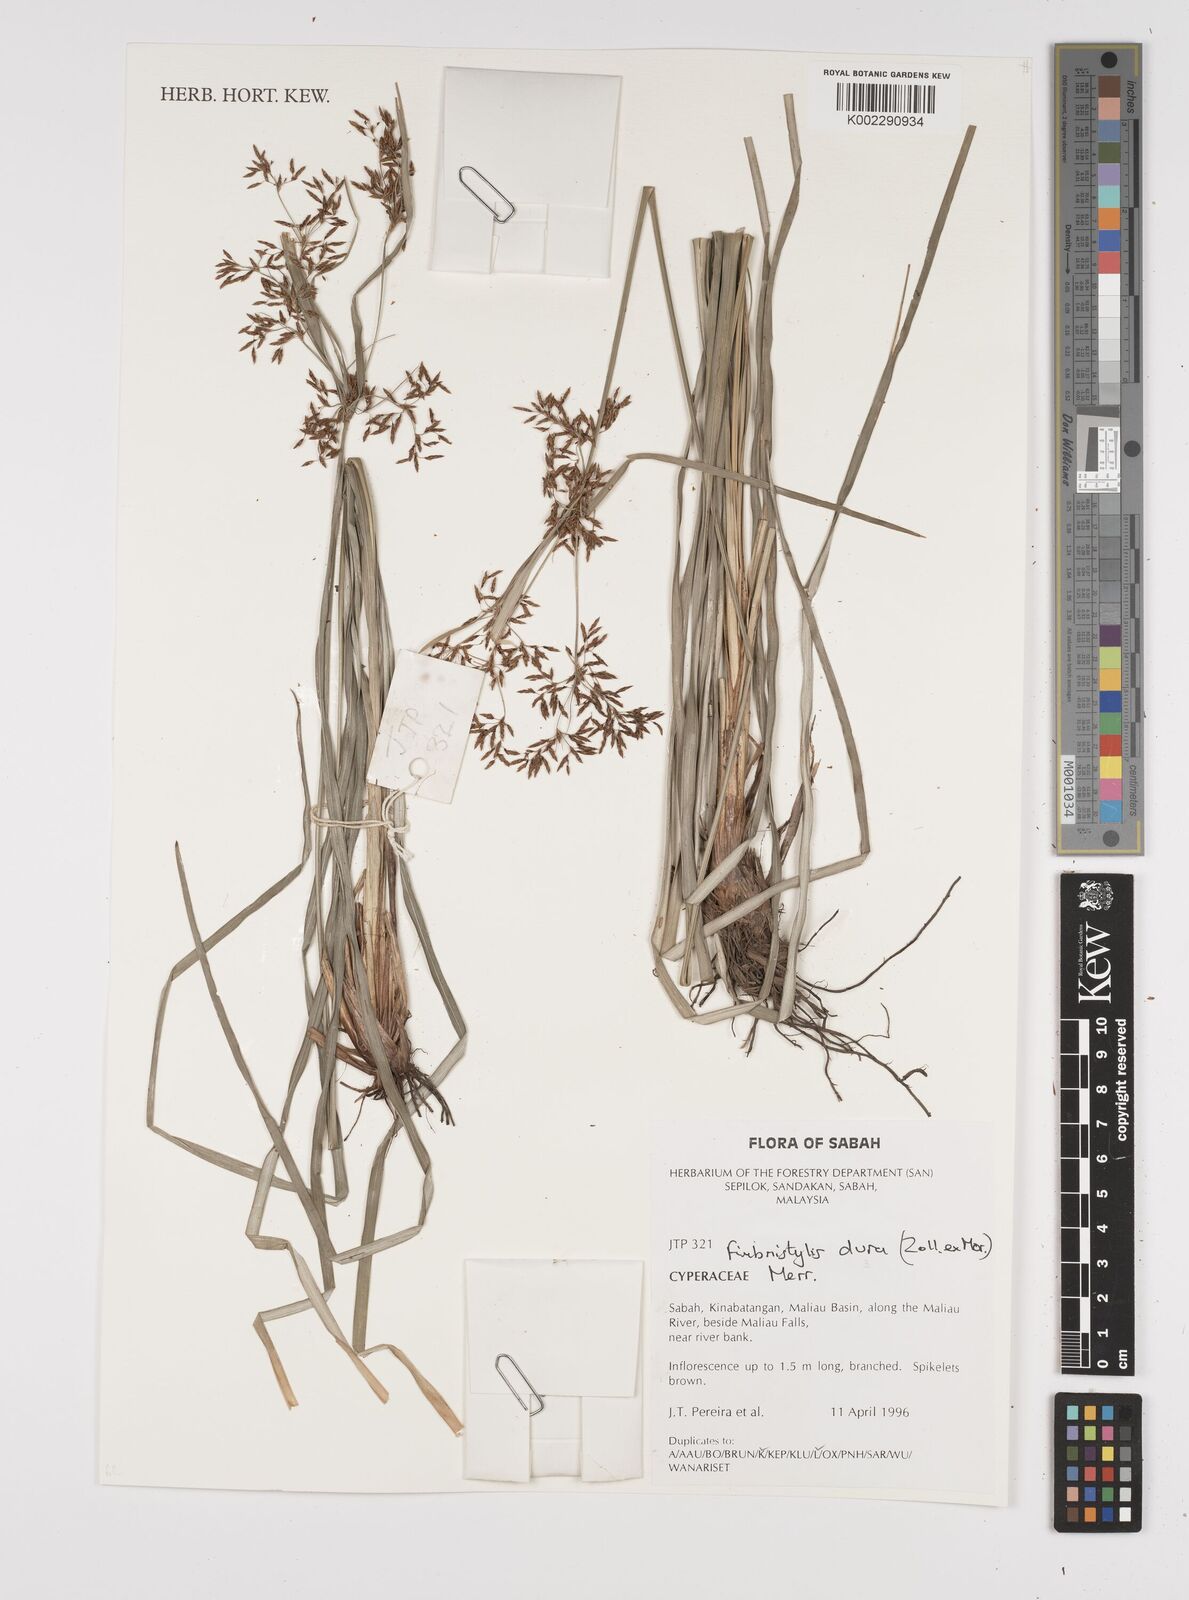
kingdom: Plantae
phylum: Tracheophyta
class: Liliopsida
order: Poales
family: Cyperaceae
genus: Fimbristylis
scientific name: Fimbristylis dura
